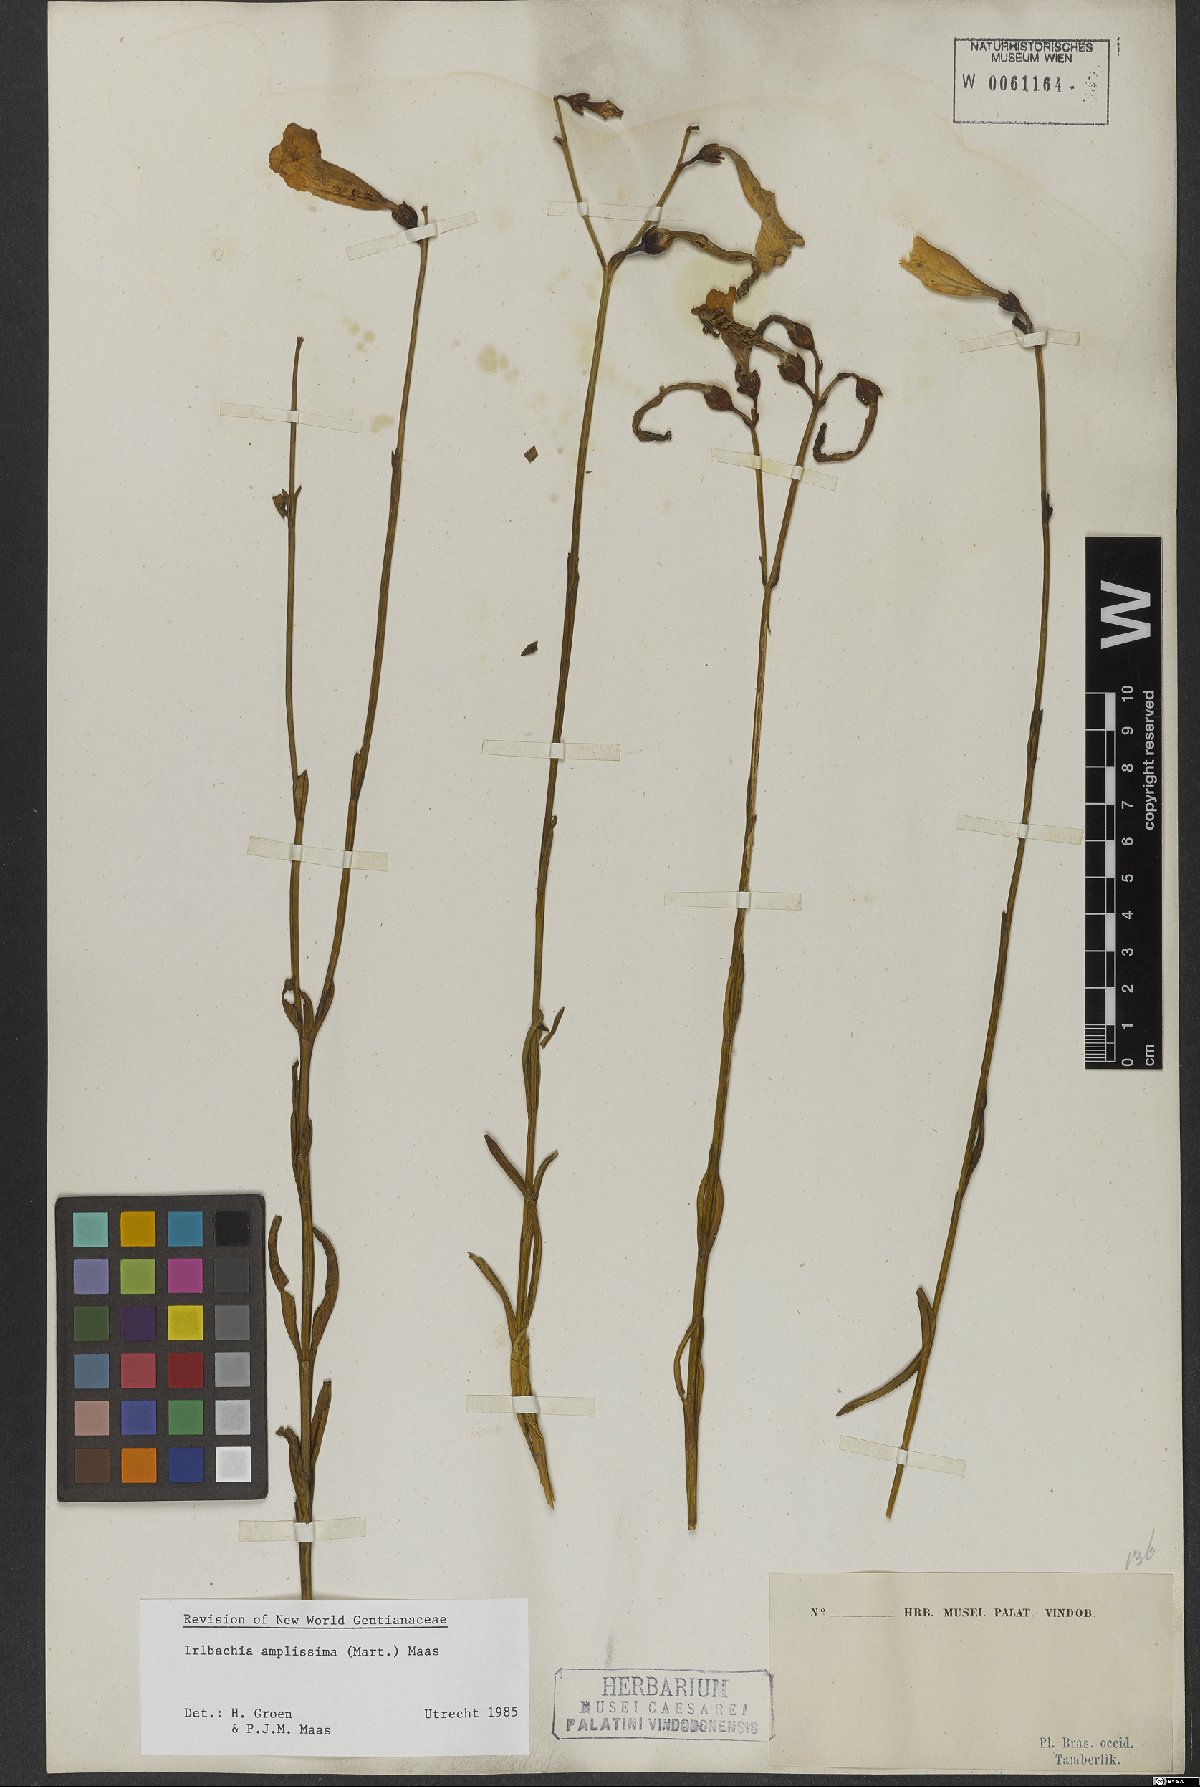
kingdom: Plantae
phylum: Tracheophyta
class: Magnoliopsida
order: Gentianales
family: Gentianaceae
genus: Calolisianthus
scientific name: Calolisianthus amplissimus
